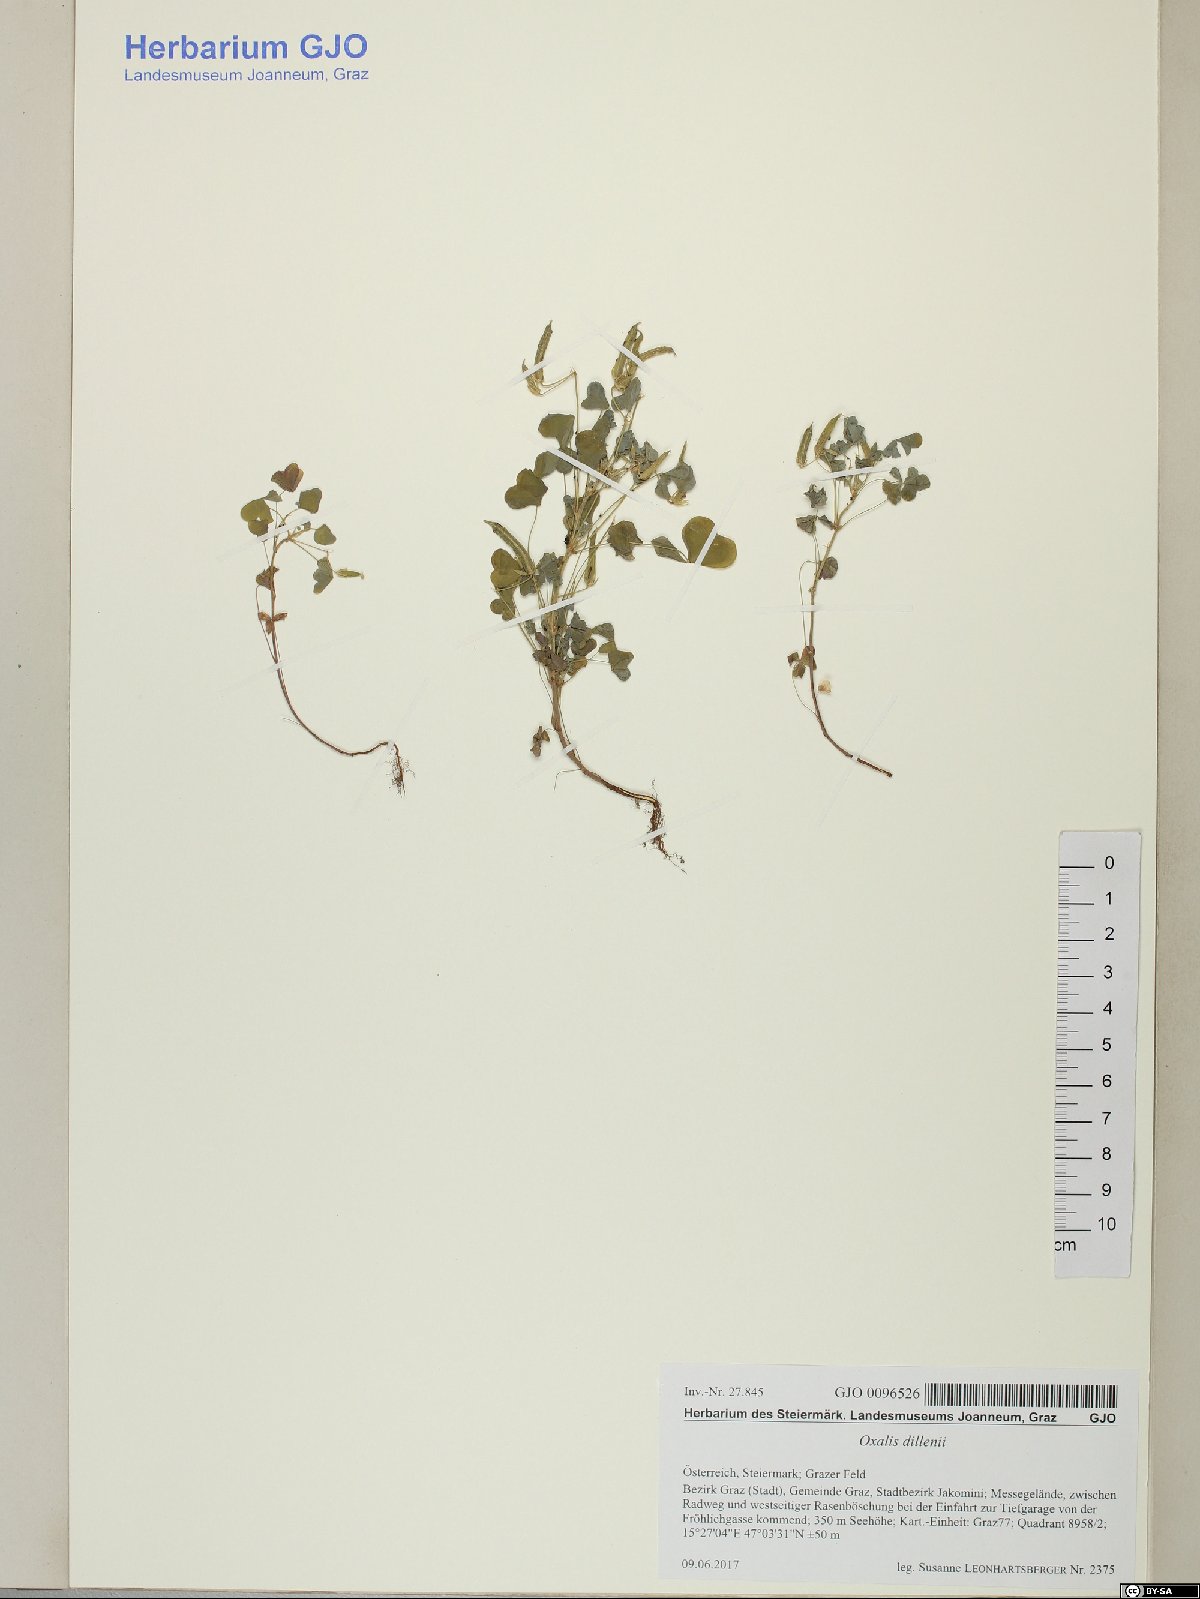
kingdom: Plantae
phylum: Tracheophyta
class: Magnoliopsida
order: Oxalidales
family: Oxalidaceae
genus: Oxalis
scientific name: Oxalis dillenii
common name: Sussex yellow-sorrel
